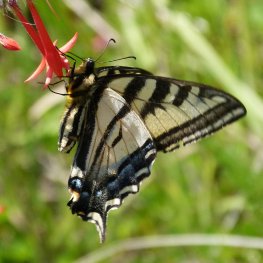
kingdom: Animalia
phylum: Arthropoda
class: Insecta
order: Lepidoptera
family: Papilionidae
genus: Pterourus
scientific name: Pterourus rutulus
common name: Western Tiger Swallowtail
